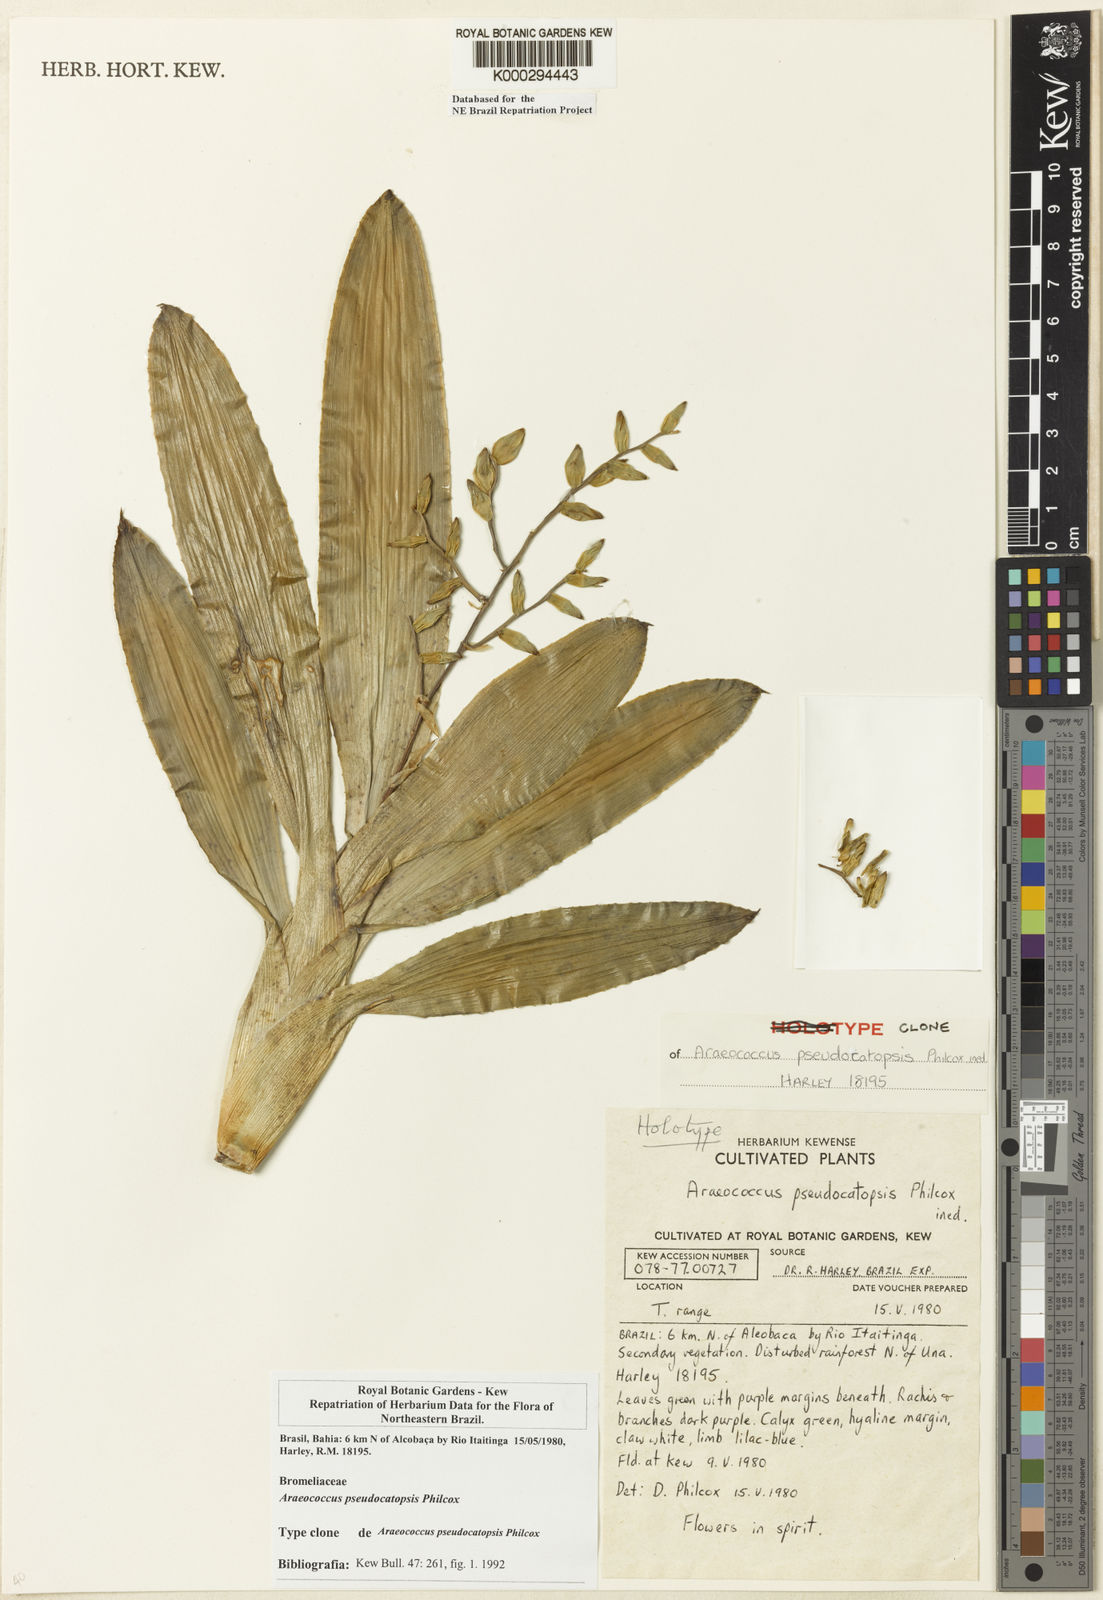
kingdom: Plantae
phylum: Tracheophyta
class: Liliopsida
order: Poales
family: Bromeliaceae
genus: Lymania
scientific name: Lymania azurea
